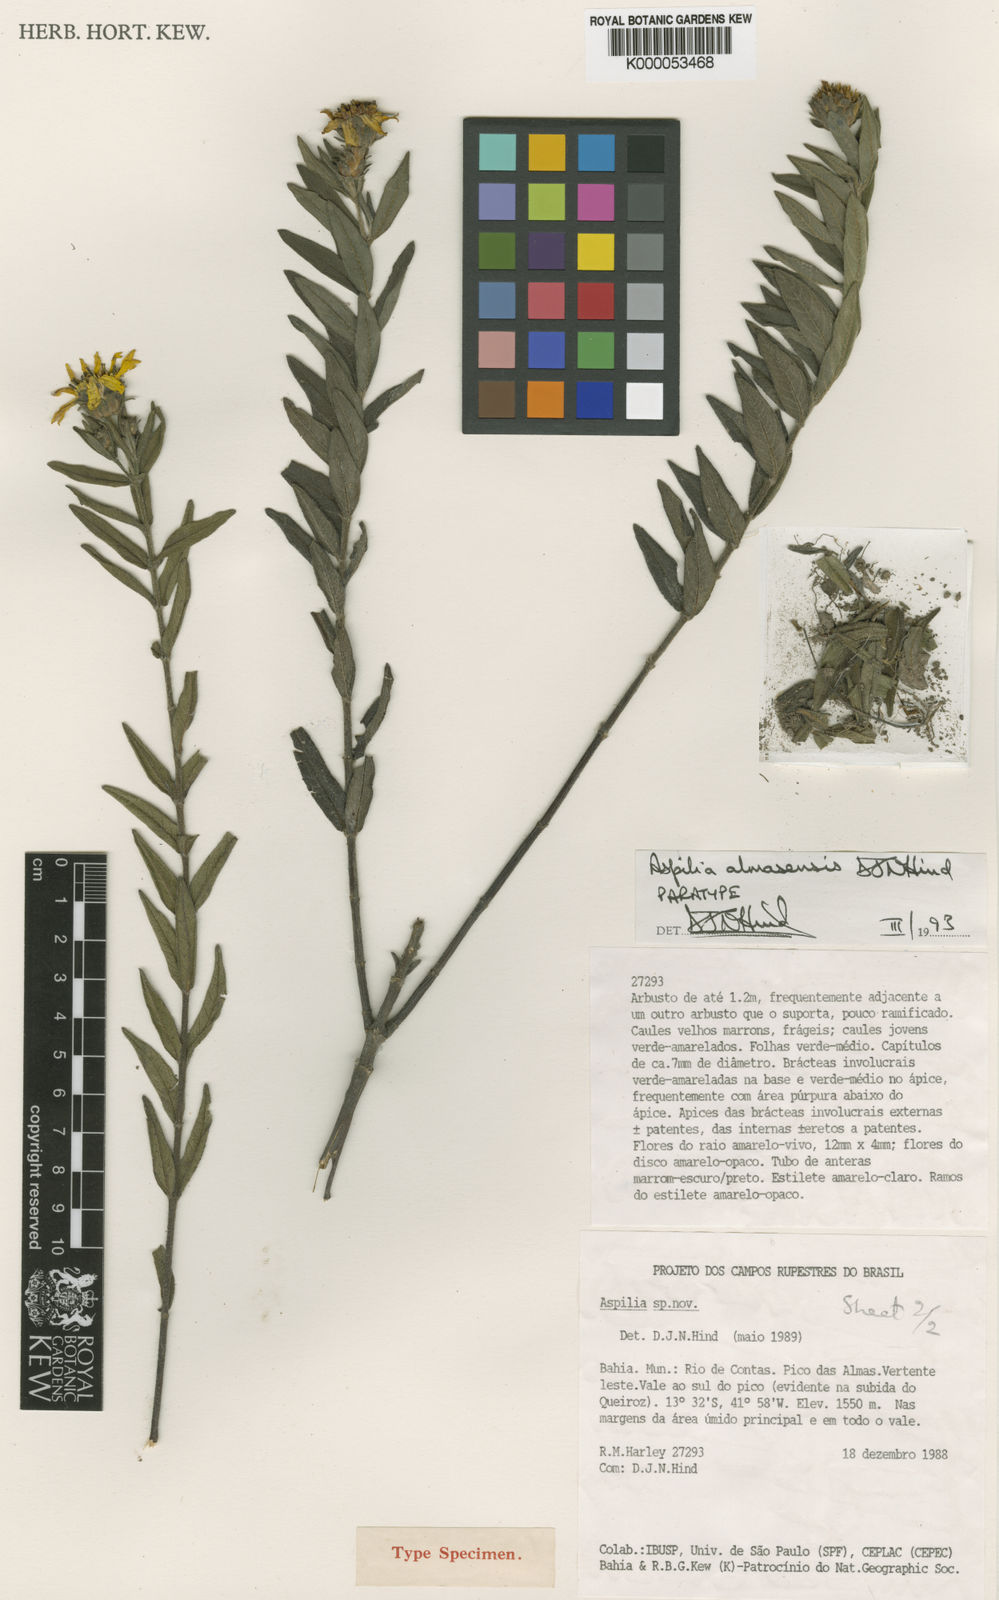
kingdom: Plantae
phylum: Tracheophyta
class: Magnoliopsida
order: Asterales
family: Asteraceae
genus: Aspilia
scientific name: Aspilia almasensis
